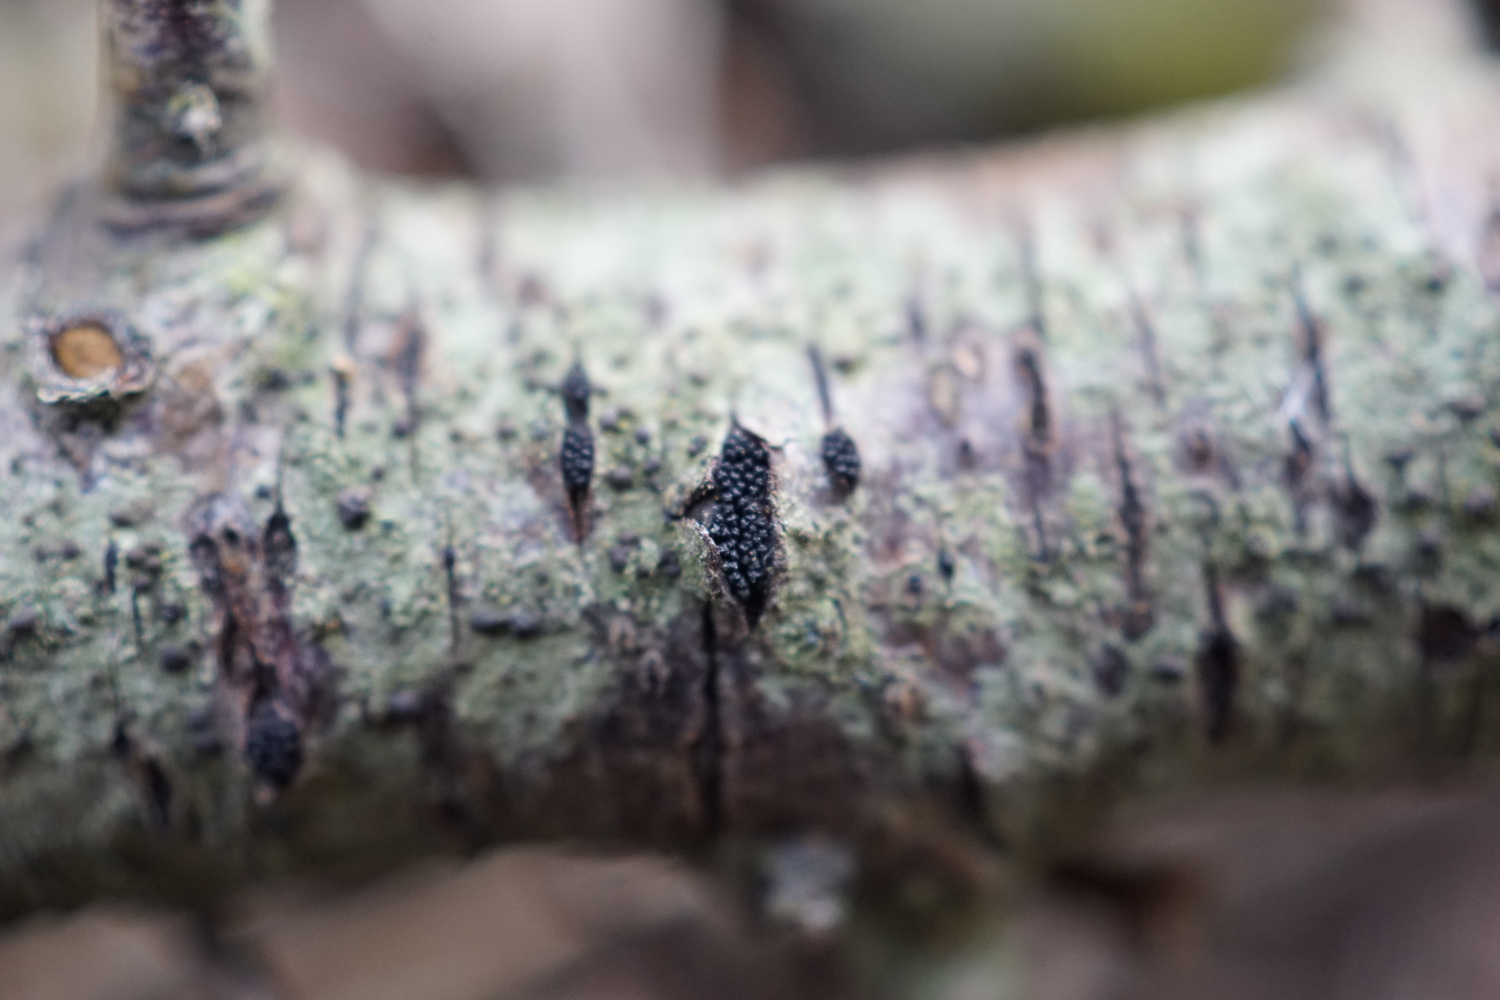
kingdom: Fungi
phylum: Ascomycota
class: Sordariomycetes
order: Xylariales
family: Diatrypaceae
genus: Eutypella
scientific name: Eutypella prunastri
